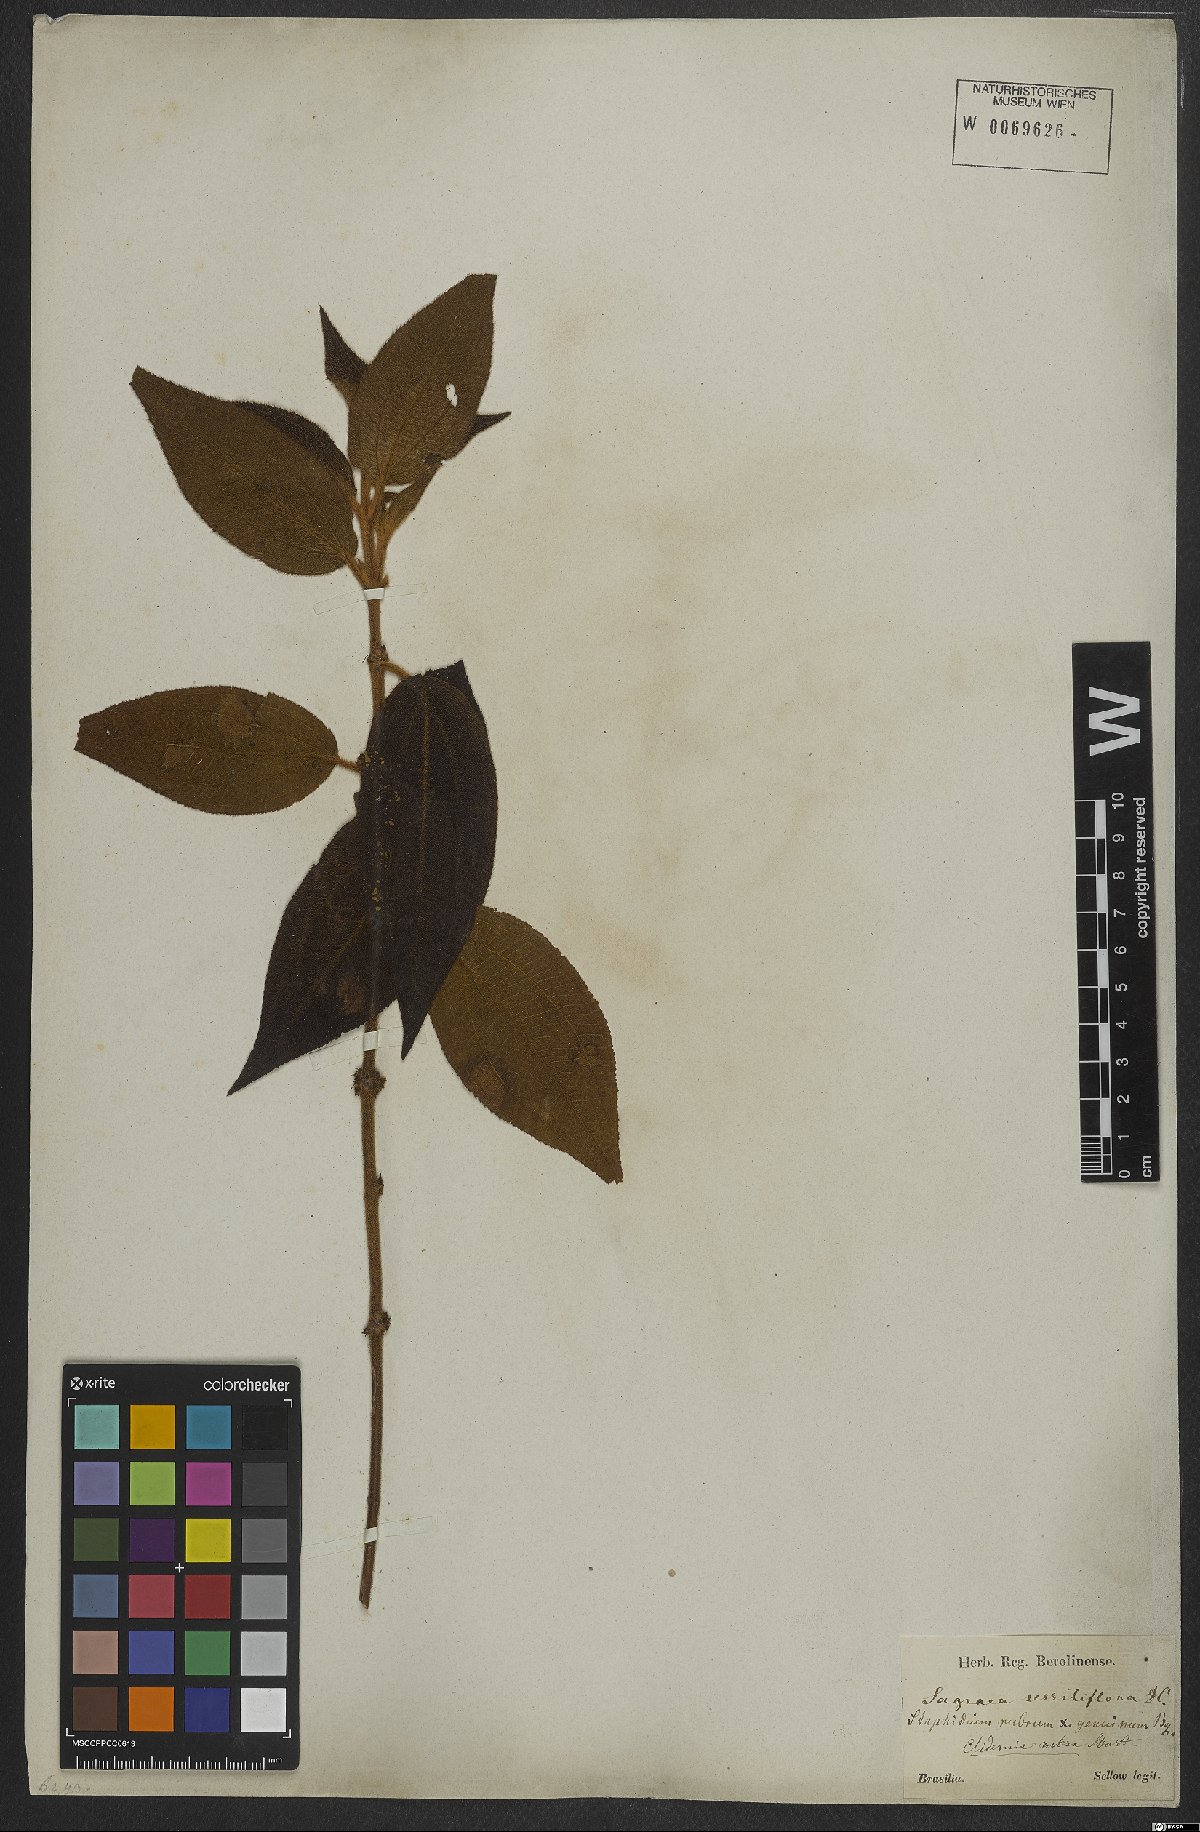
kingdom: Plantae
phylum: Tracheophyta
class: Magnoliopsida
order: Myrtales
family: Melastomataceae
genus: Miconia
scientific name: Miconia rubra
